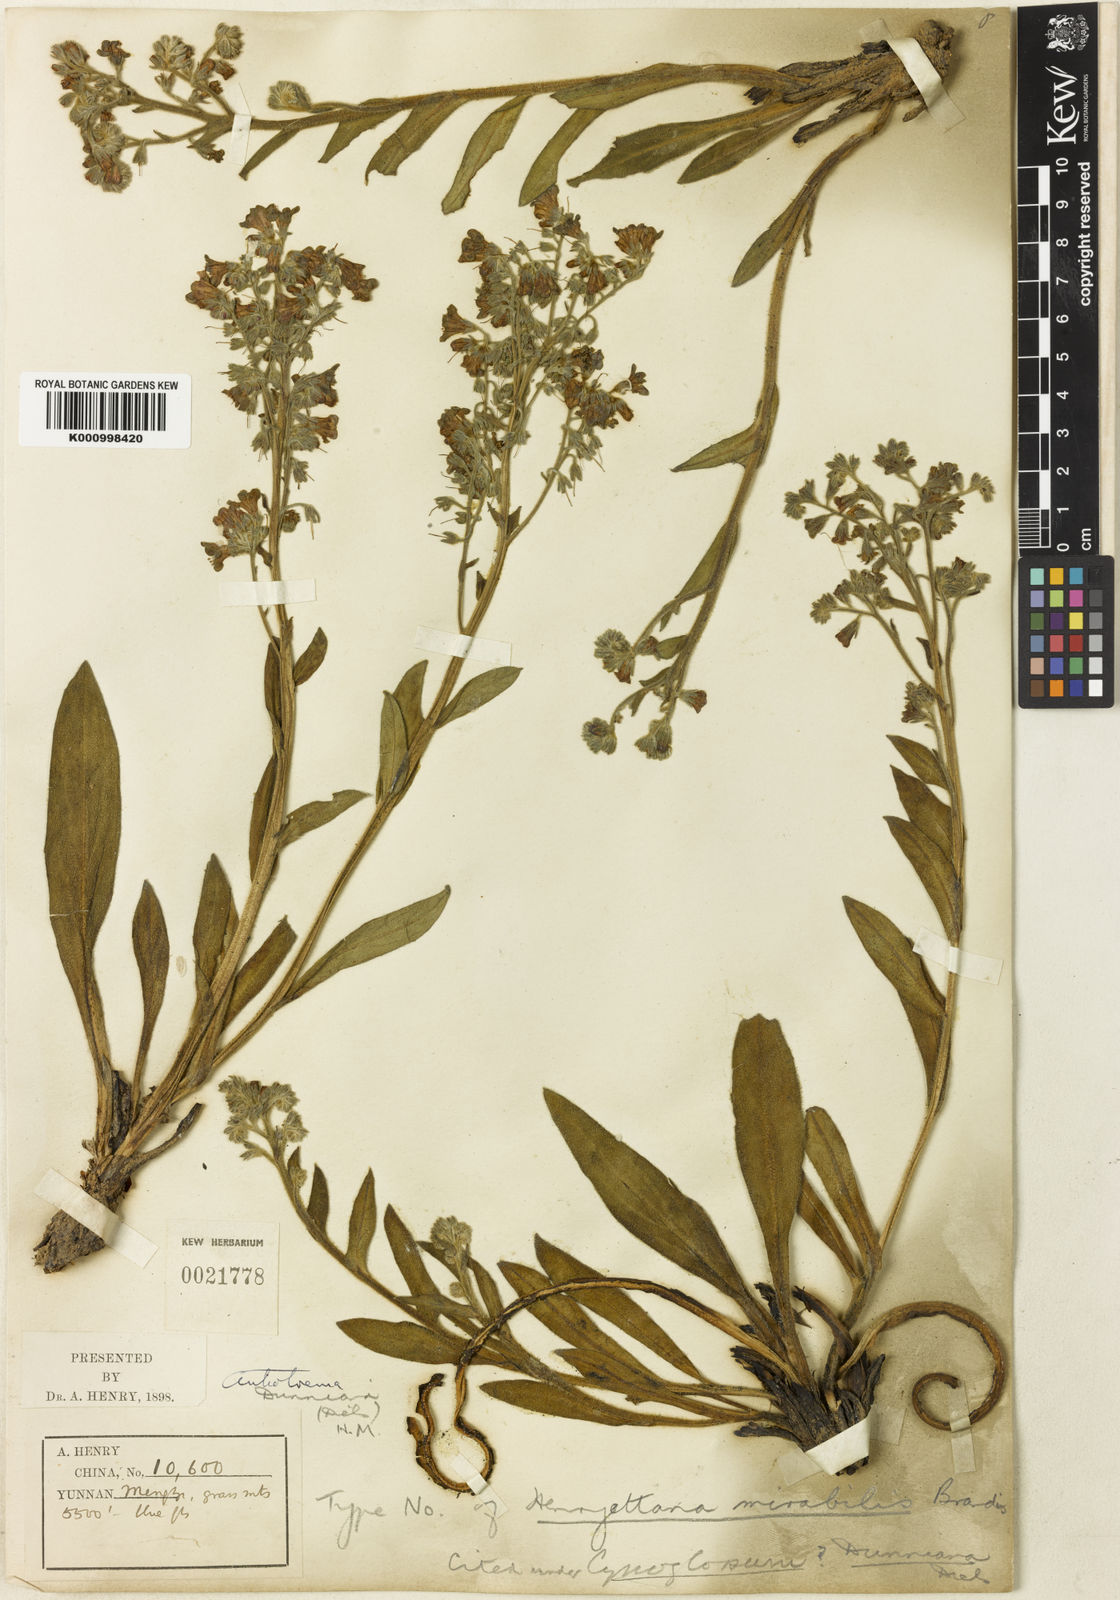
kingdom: Plantae
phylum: Tracheophyta
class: Magnoliopsida
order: Boraginales
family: Boraginaceae
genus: Antiotrema
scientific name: Antiotrema dunnianum
